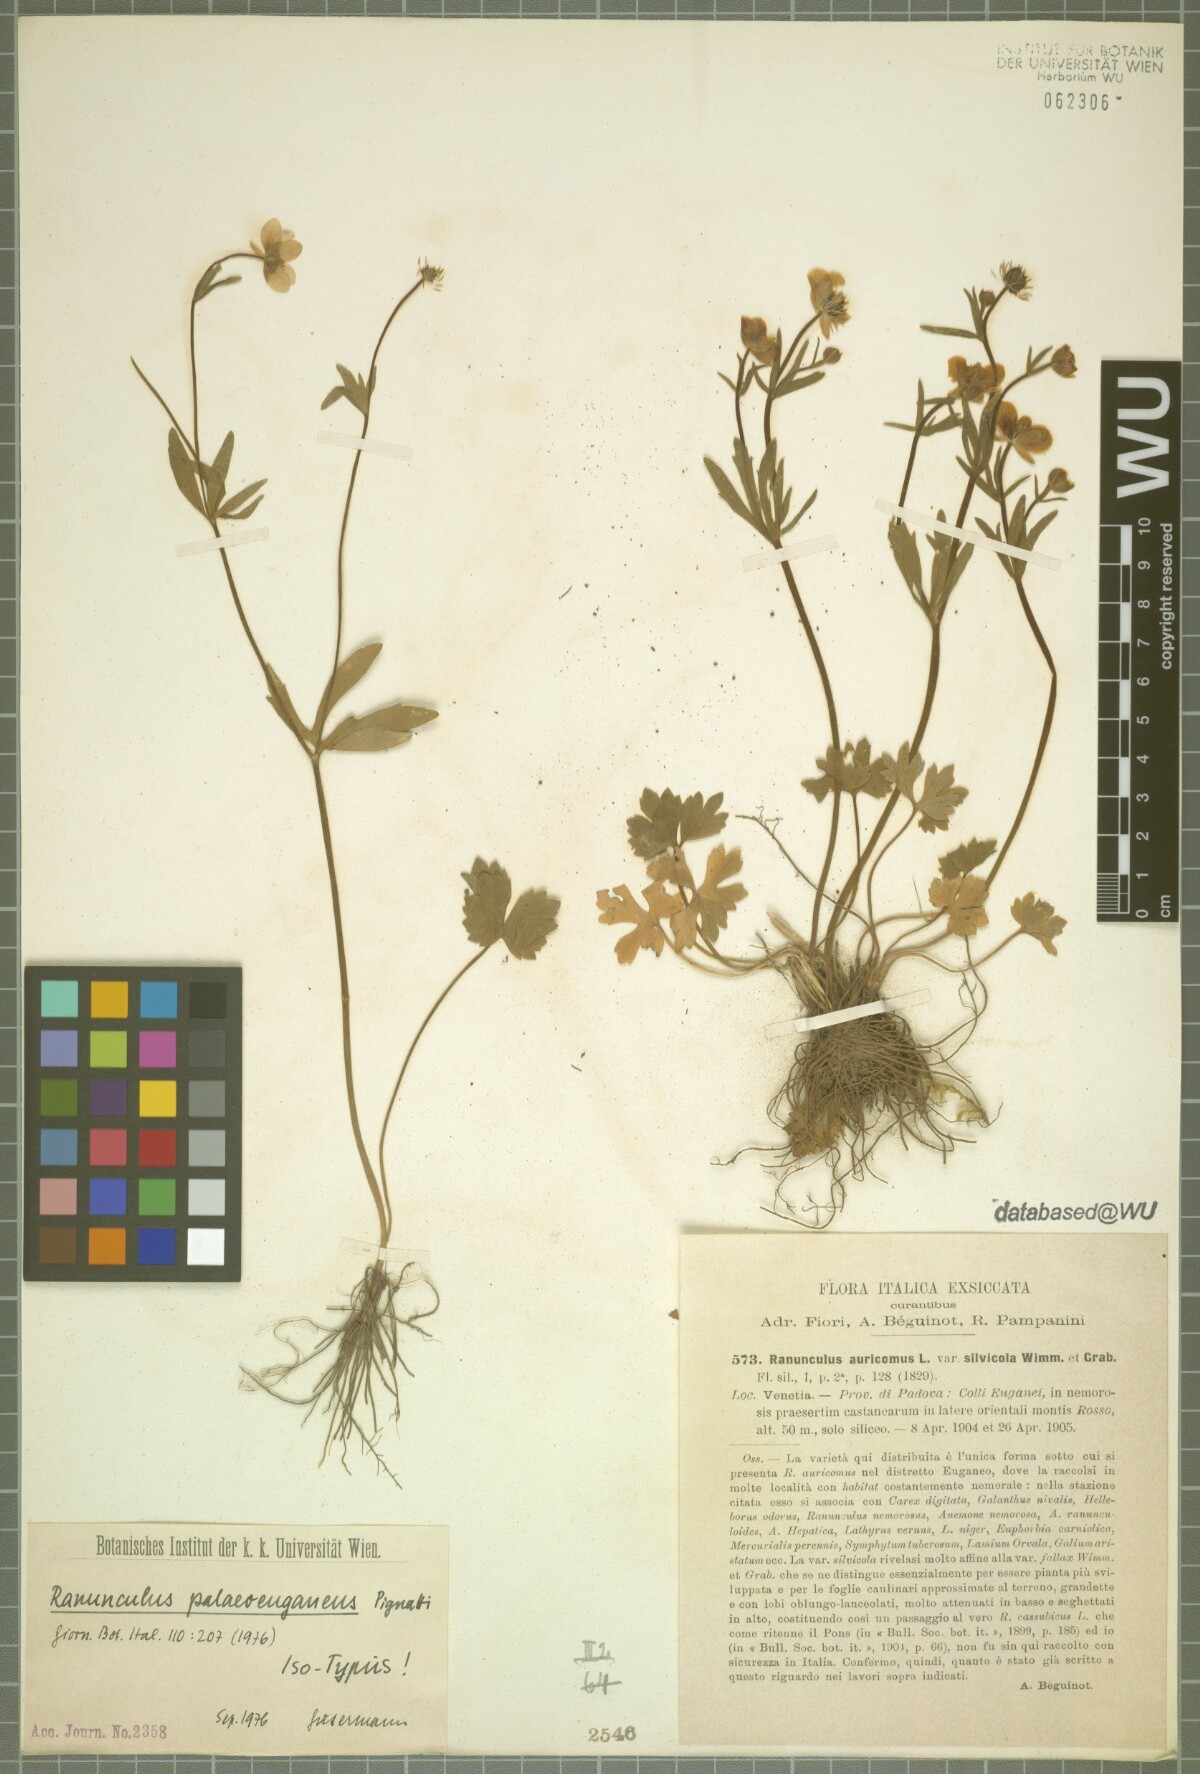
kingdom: Plantae
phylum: Tracheophyta
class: Magnoliopsida
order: Ranunculales
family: Ranunculaceae
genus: Ranunculus
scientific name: Ranunculus palaeoeuganeus
